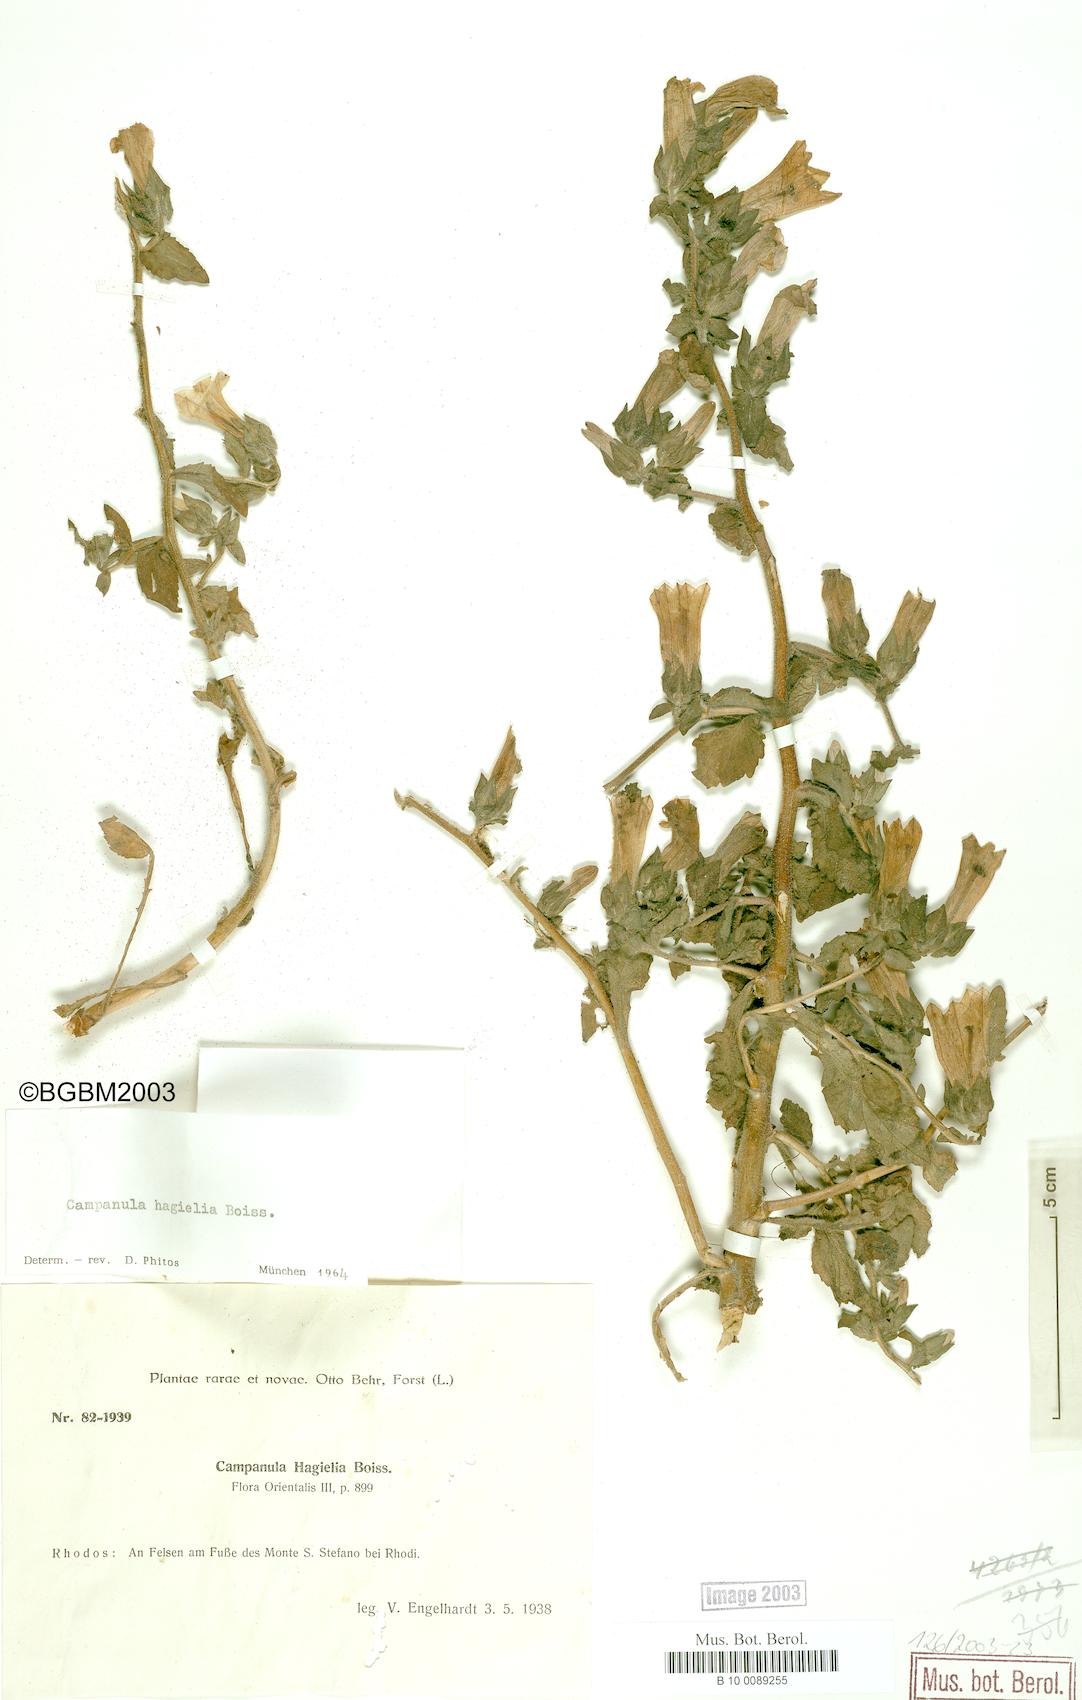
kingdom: Plantae
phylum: Tracheophyta
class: Magnoliopsida
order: Asterales
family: Campanulaceae
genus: Campanula
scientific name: Campanula hagielia
